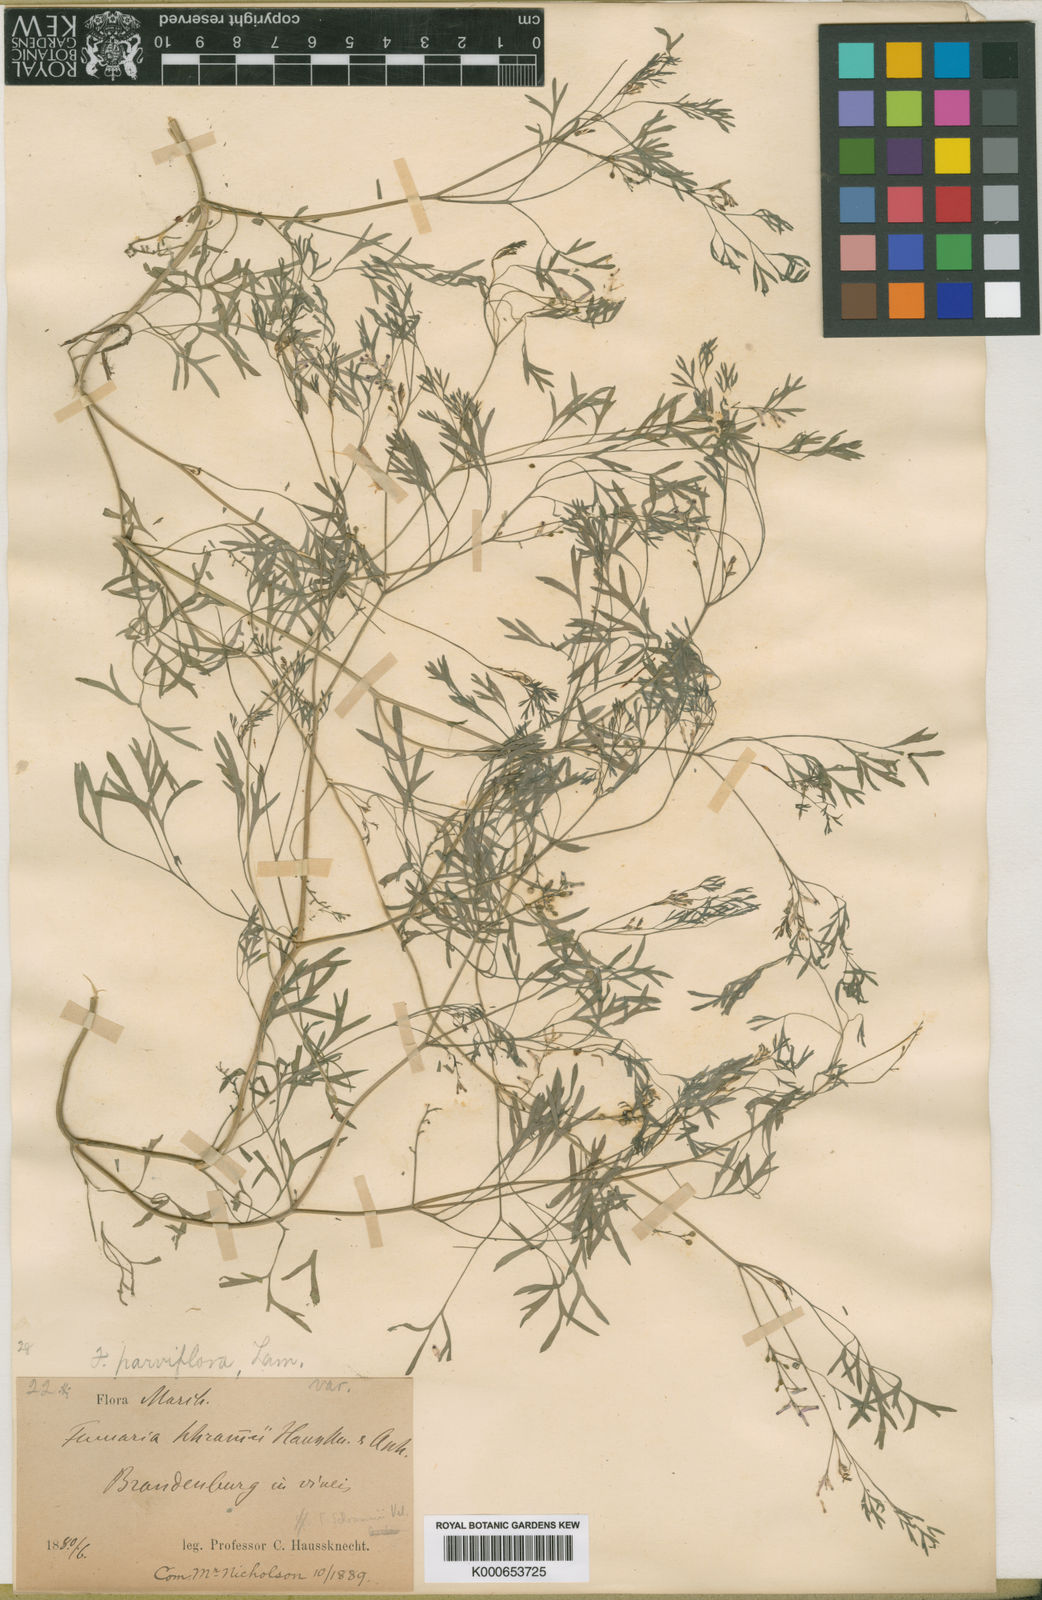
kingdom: Plantae
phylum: Tracheophyta
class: Magnoliopsida
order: Ranunculales
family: Papaveraceae
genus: Fumaria
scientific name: Fumaria vaillantii
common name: Few-flowered fumitory
